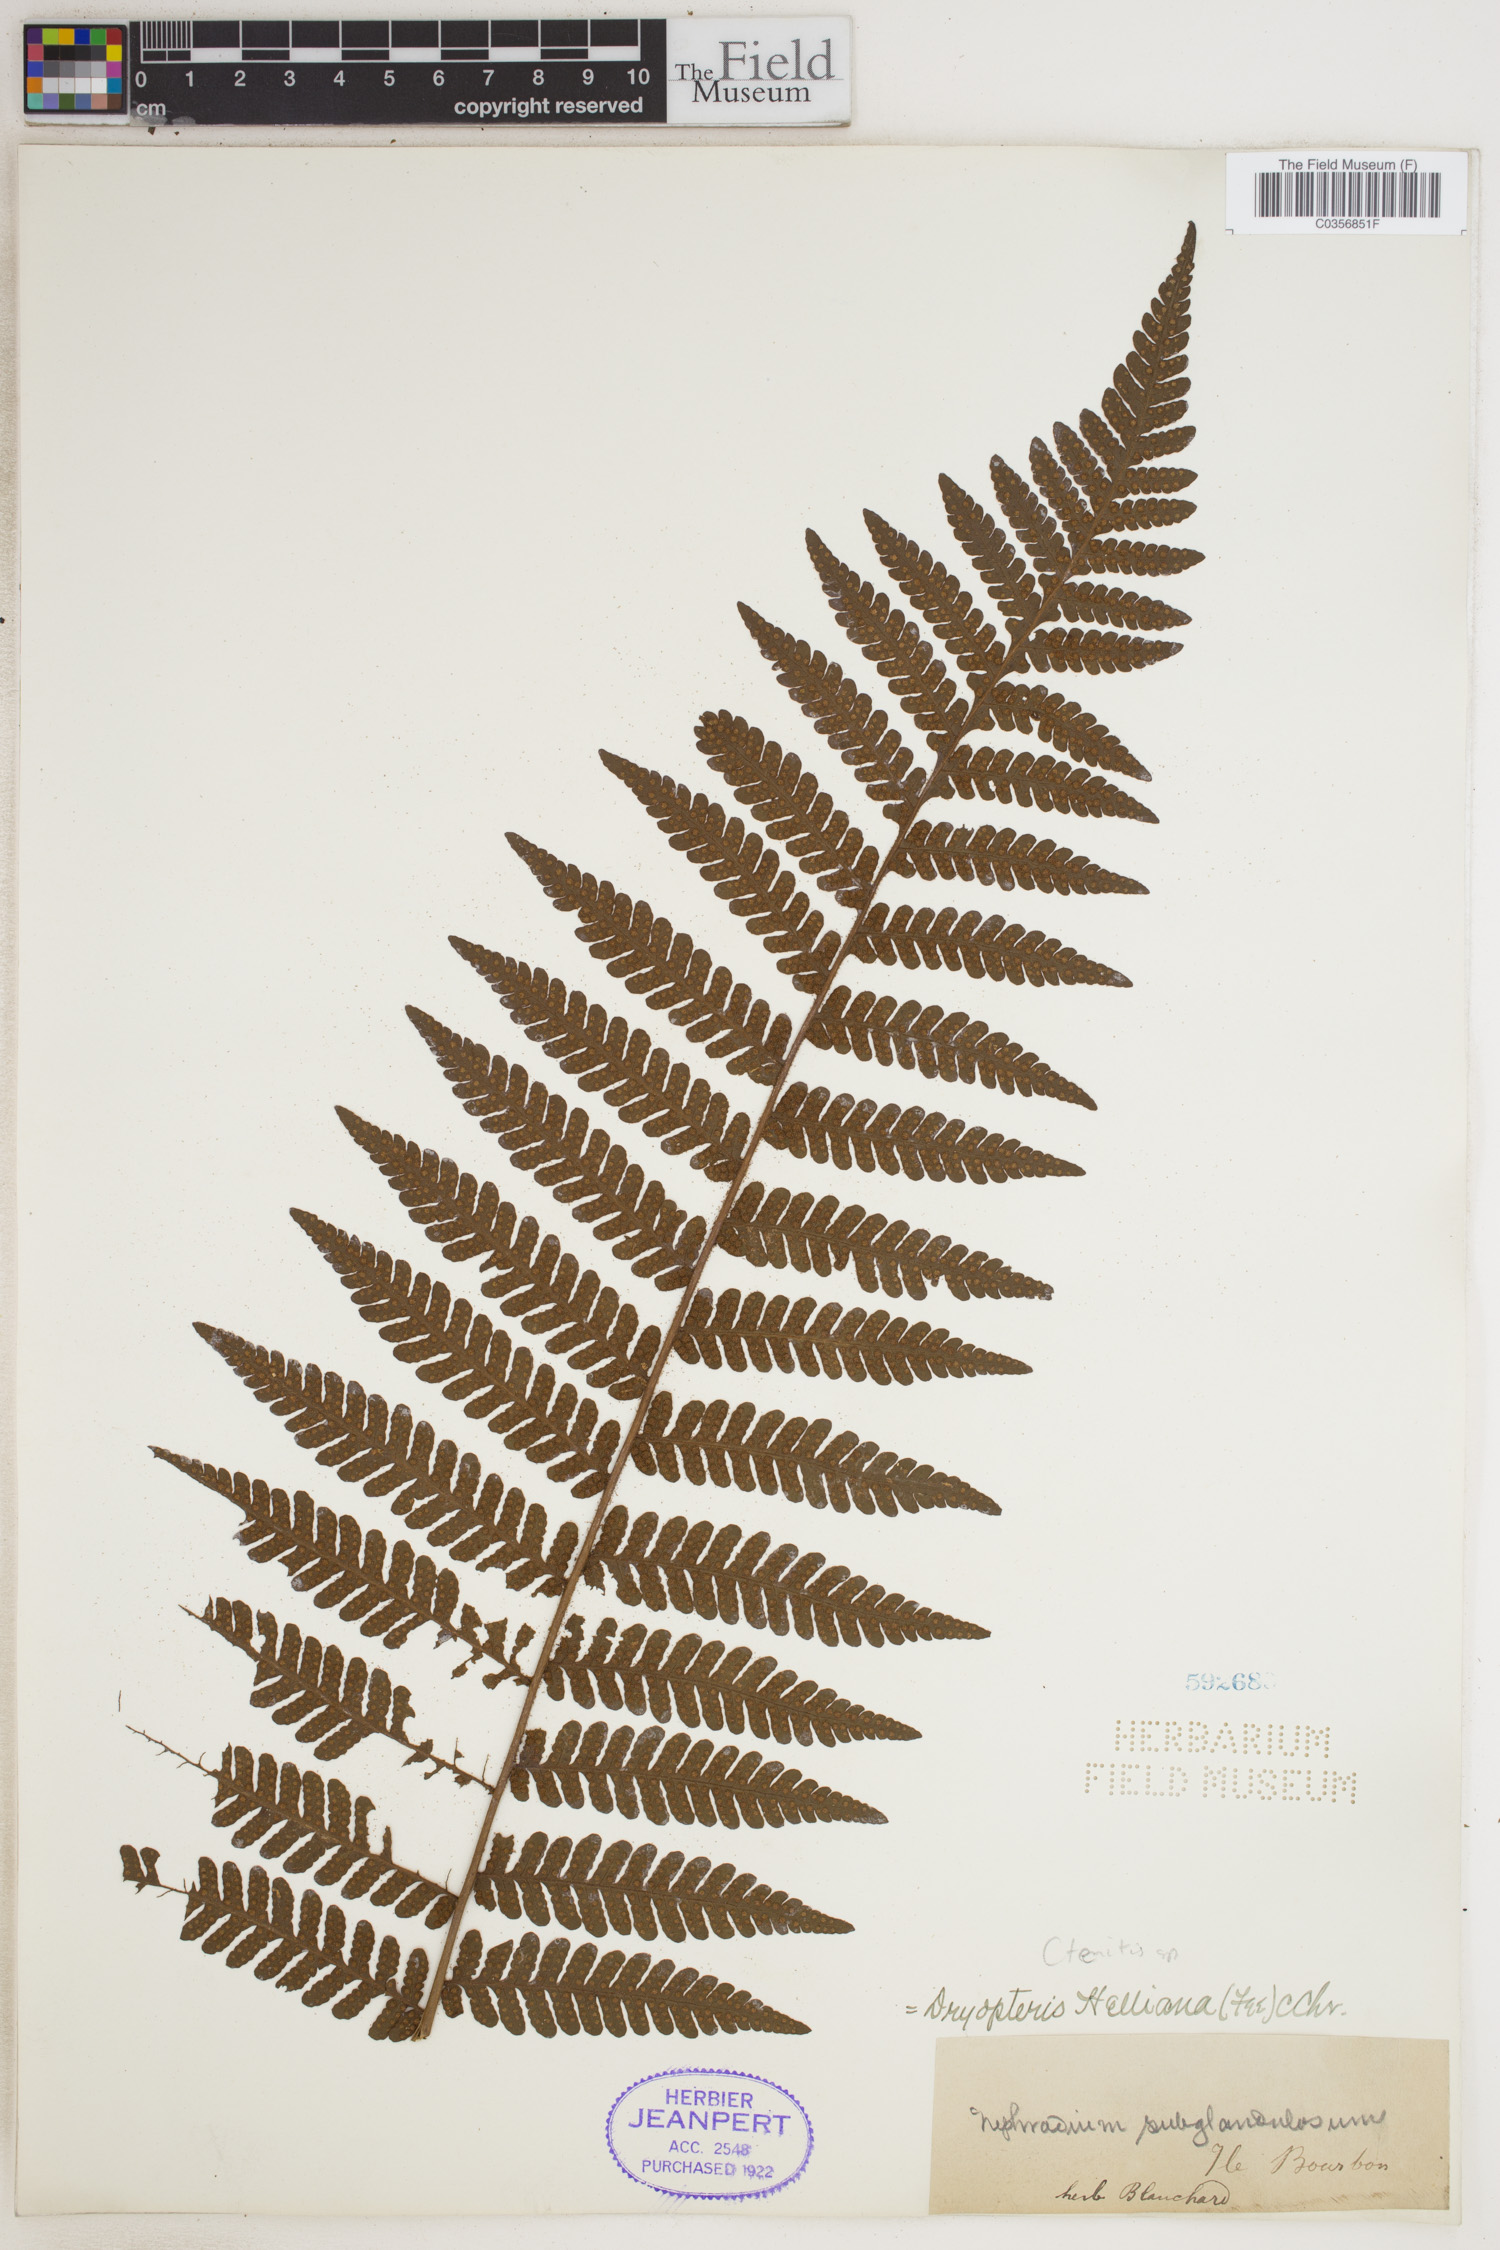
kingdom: Plantae
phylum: Tracheophyta
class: Polypodiopsida
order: Polypodiales
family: Dryopteridaceae
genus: Ctenitis
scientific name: Ctenitis
